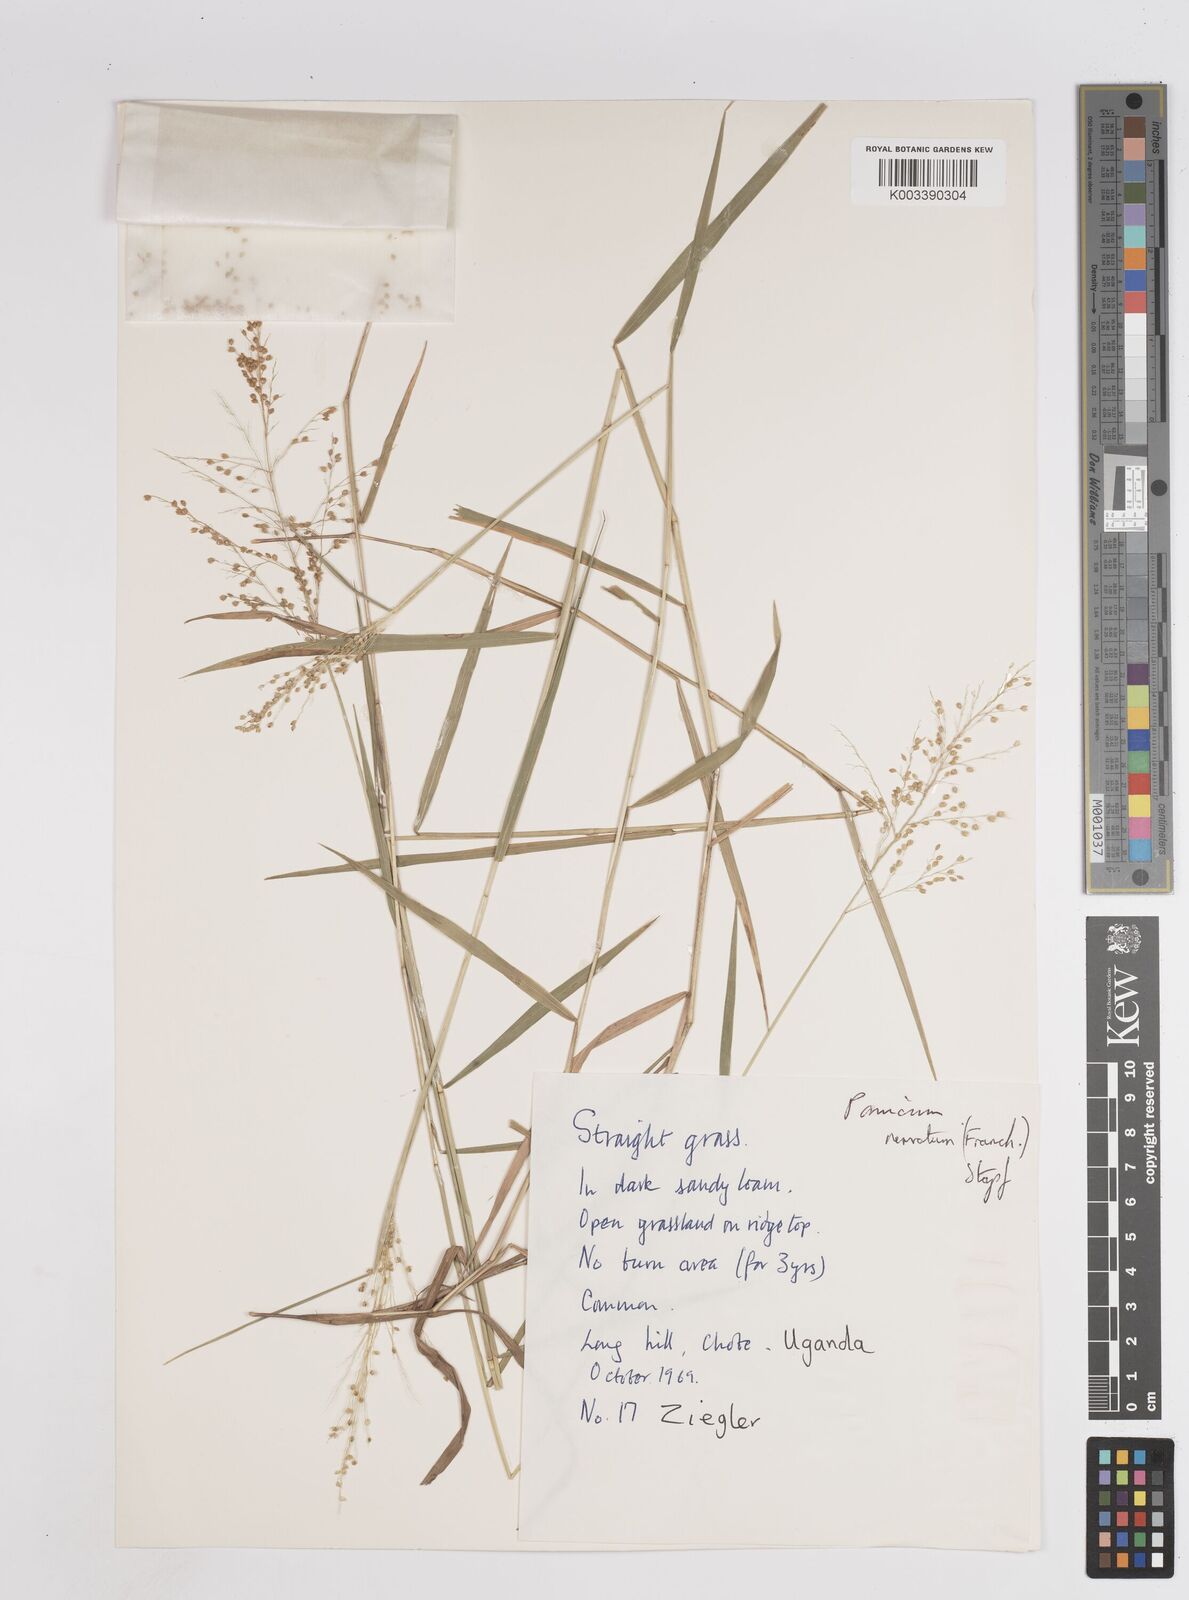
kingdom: Plantae
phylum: Tracheophyta
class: Liliopsida
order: Poales
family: Poaceae
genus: Trichanthecium
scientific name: Trichanthecium nervatum
